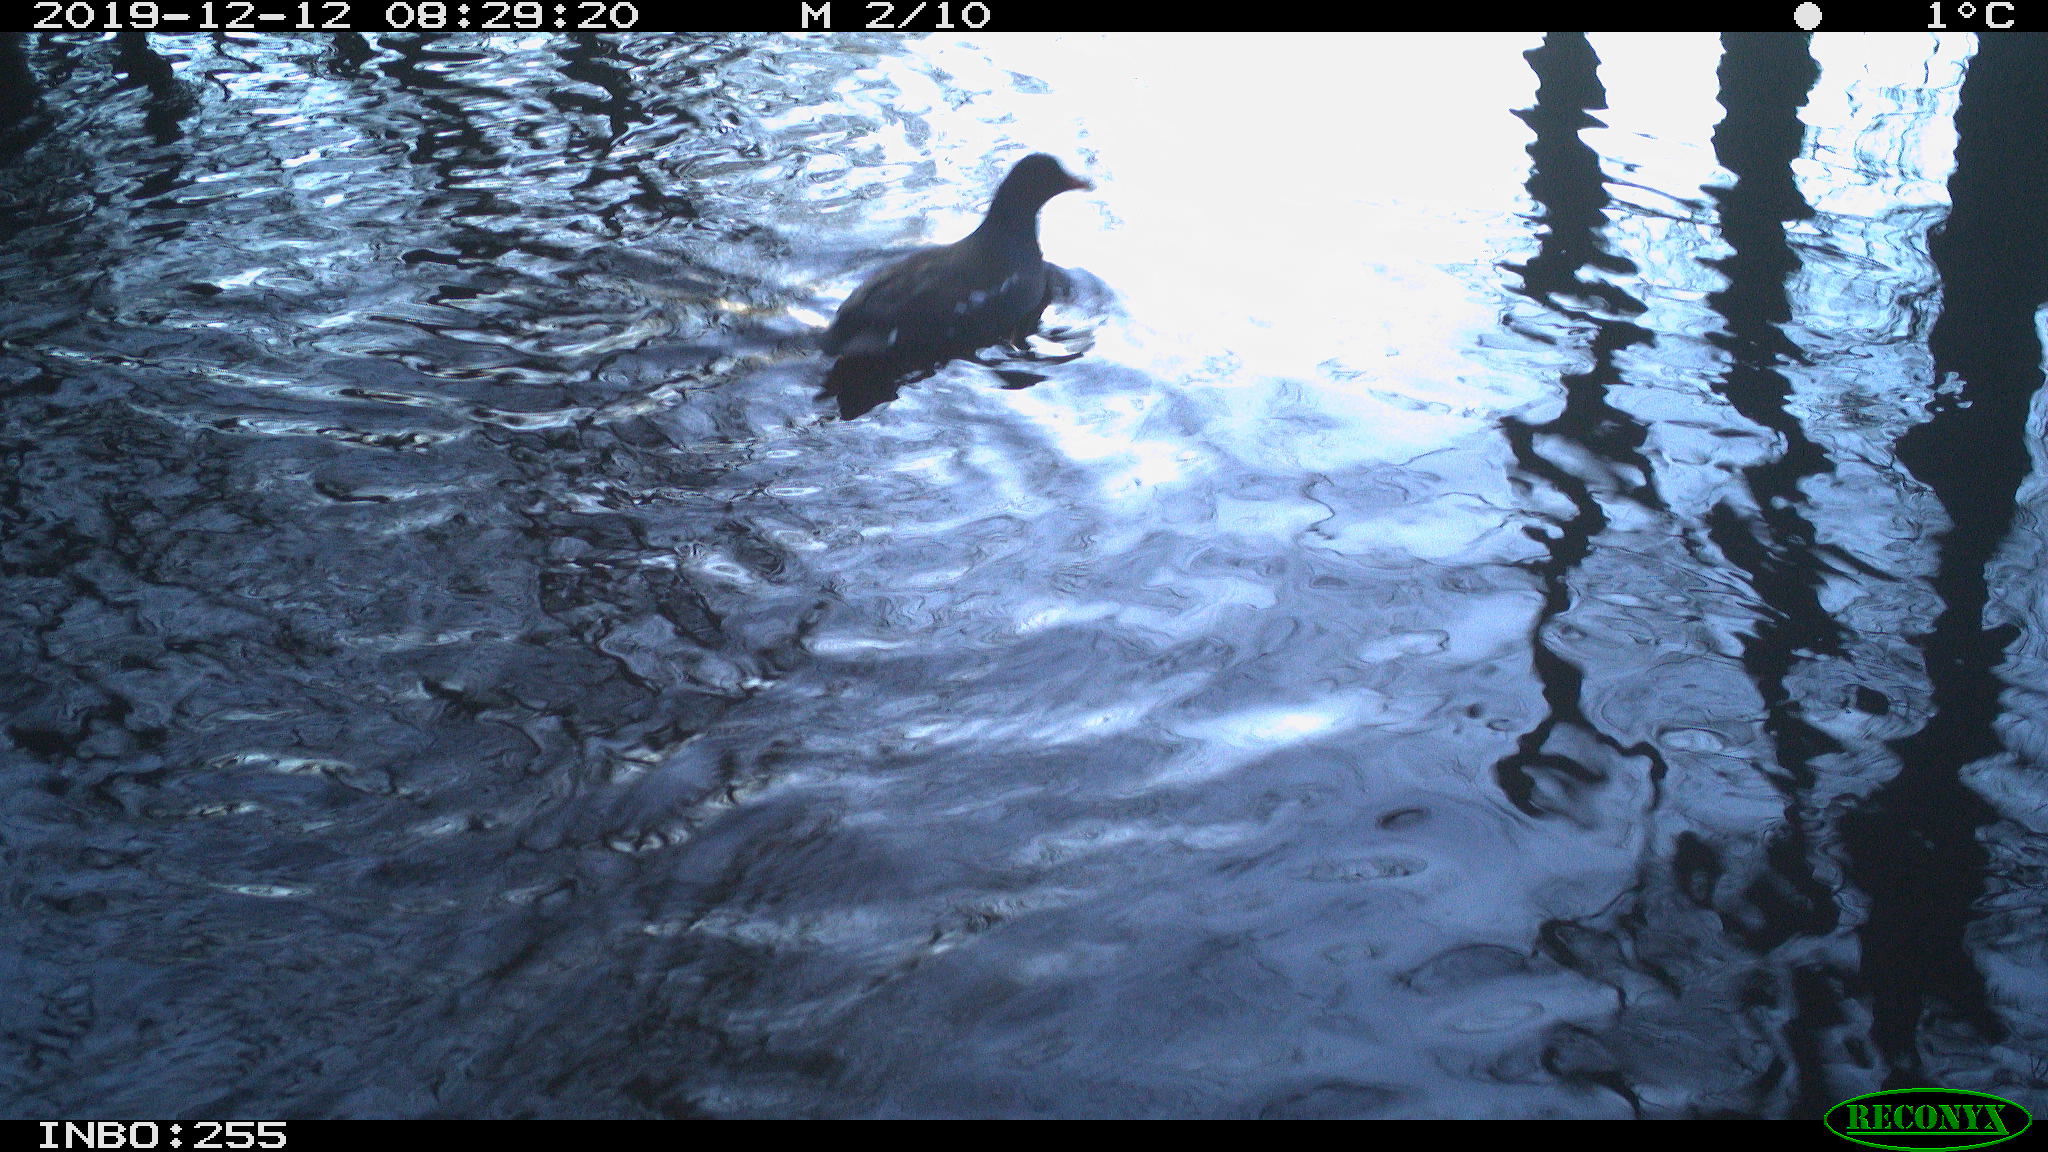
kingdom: Animalia
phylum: Chordata
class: Aves
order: Gruiformes
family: Rallidae
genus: Gallinula
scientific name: Gallinula chloropus
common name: Common moorhen
